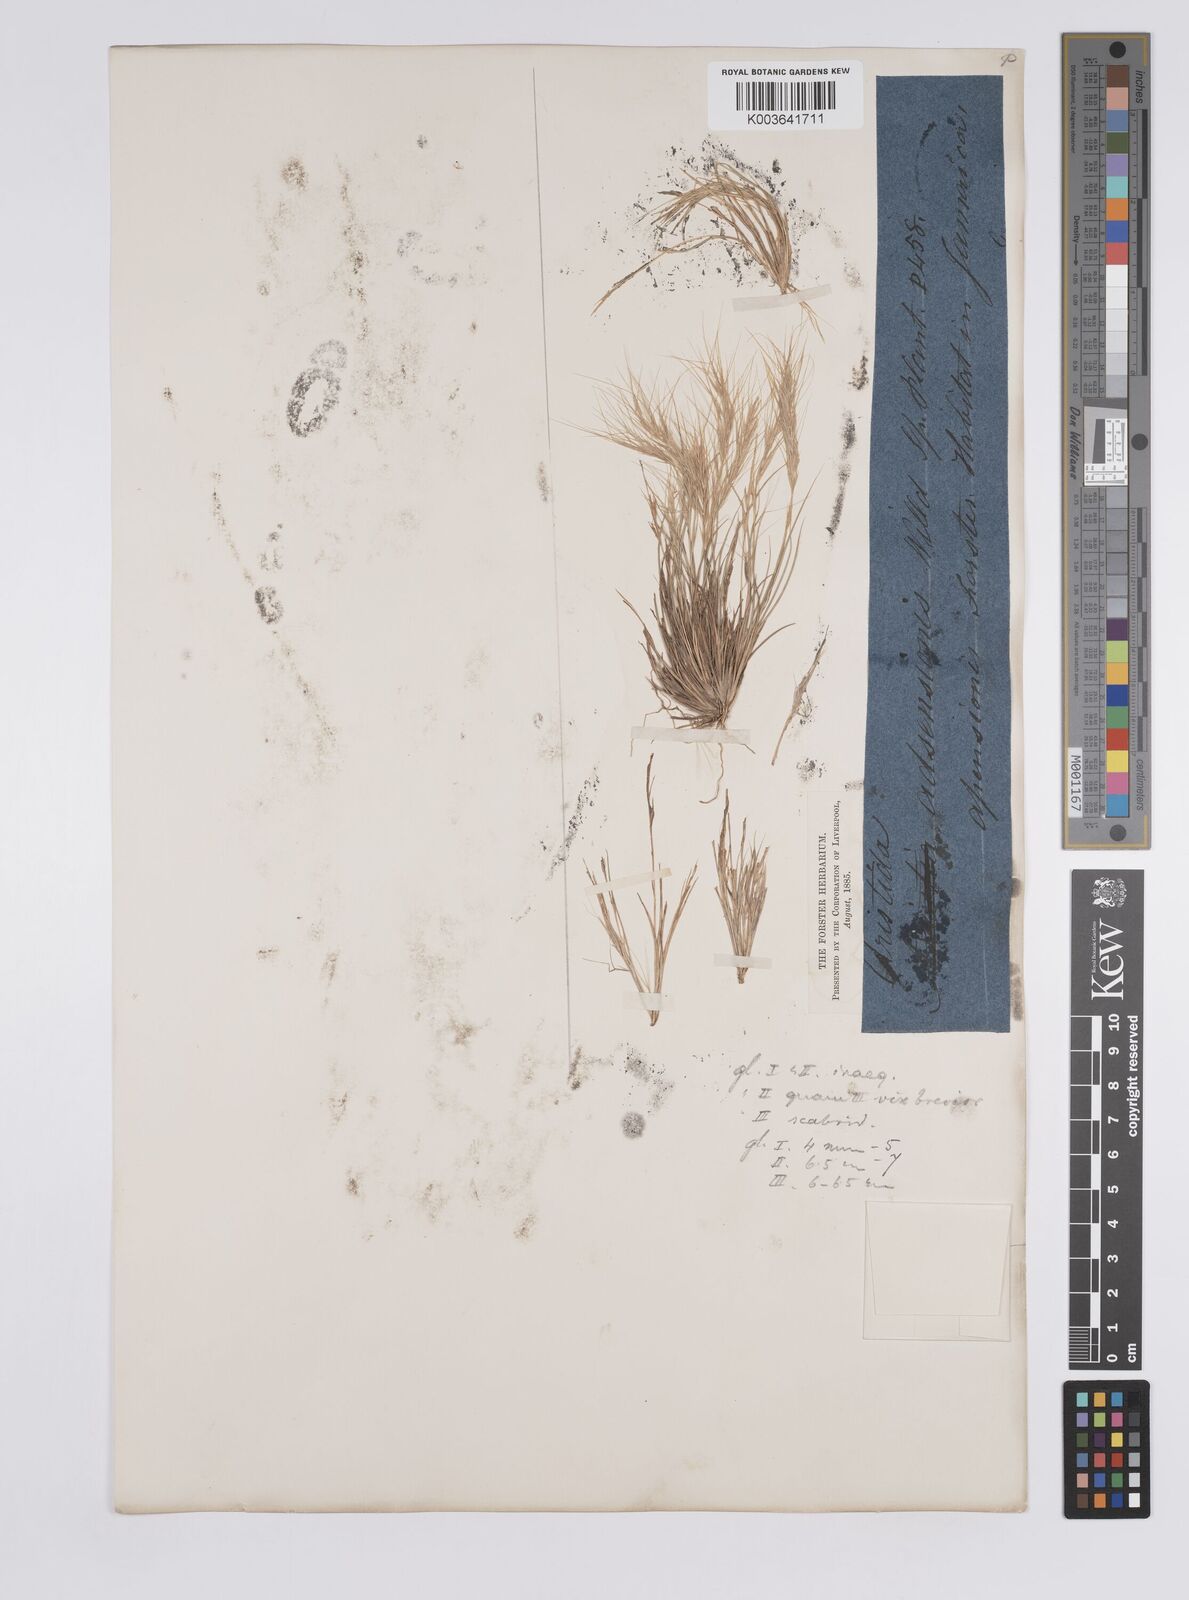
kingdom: Plantae
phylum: Tracheophyta
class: Liliopsida
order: Poales
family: Poaceae
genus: Aristida
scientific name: Aristida
